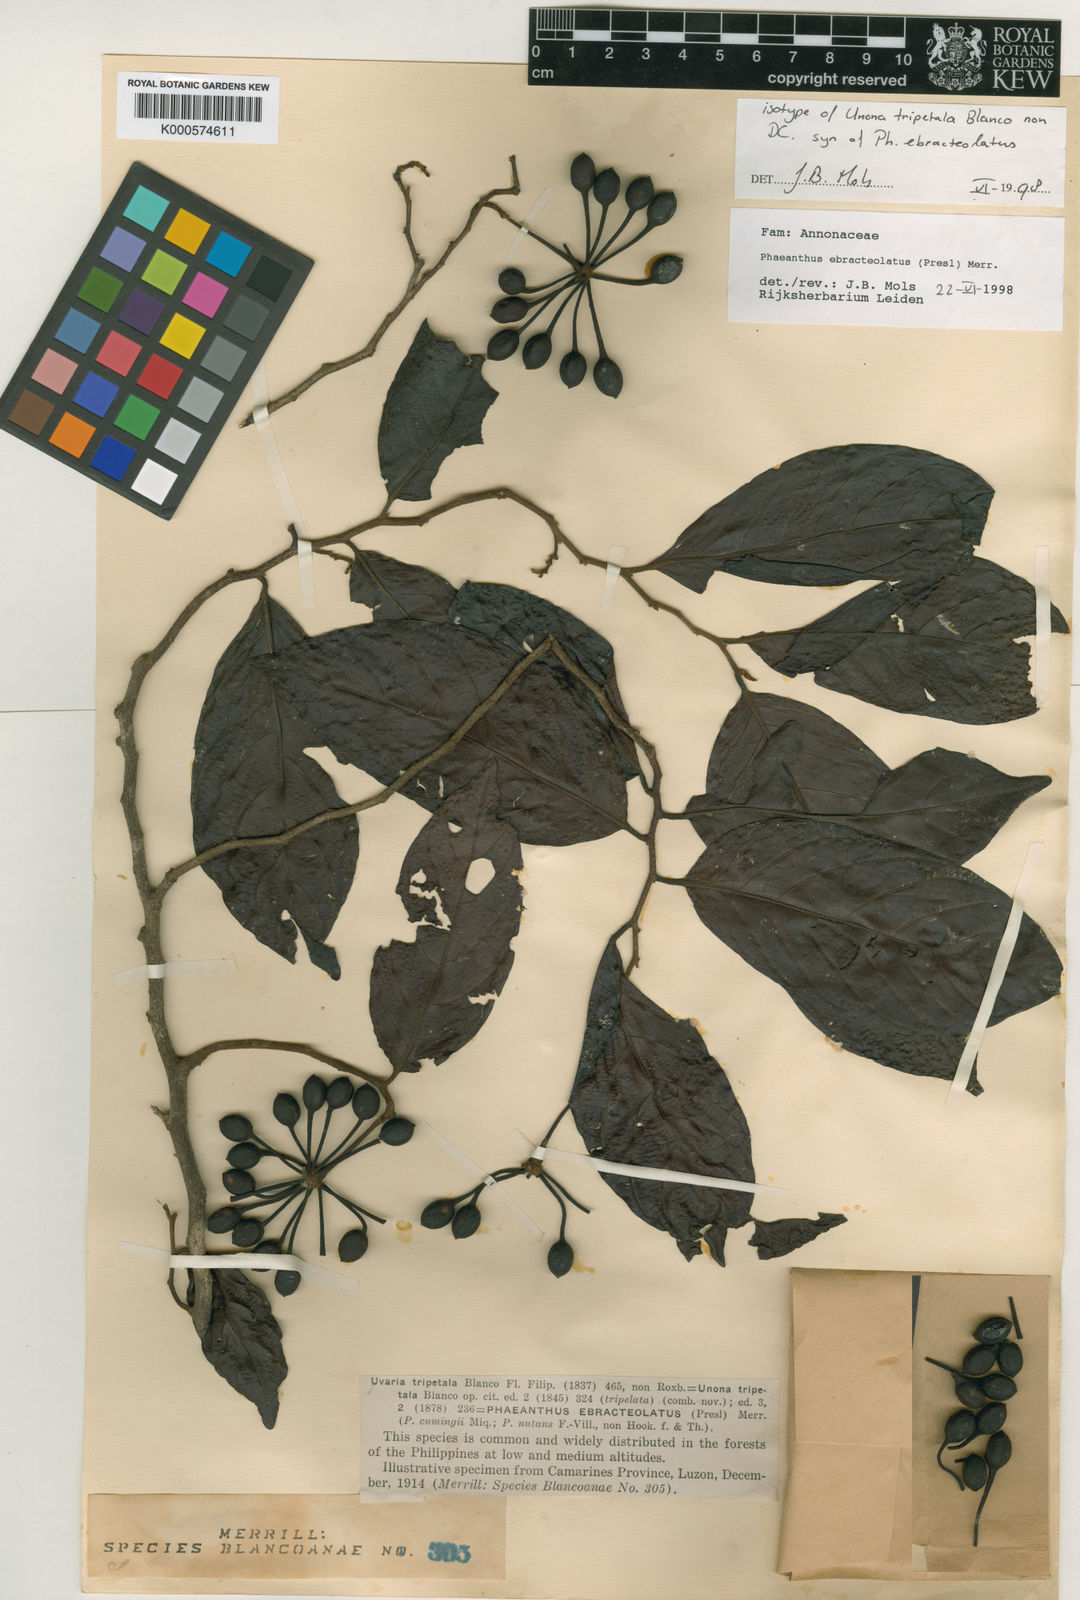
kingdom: Plantae
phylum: Tracheophyta
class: Magnoliopsida
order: Magnoliales
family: Annonaceae
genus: Phaeanthus
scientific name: Phaeanthus ophthalmicus
